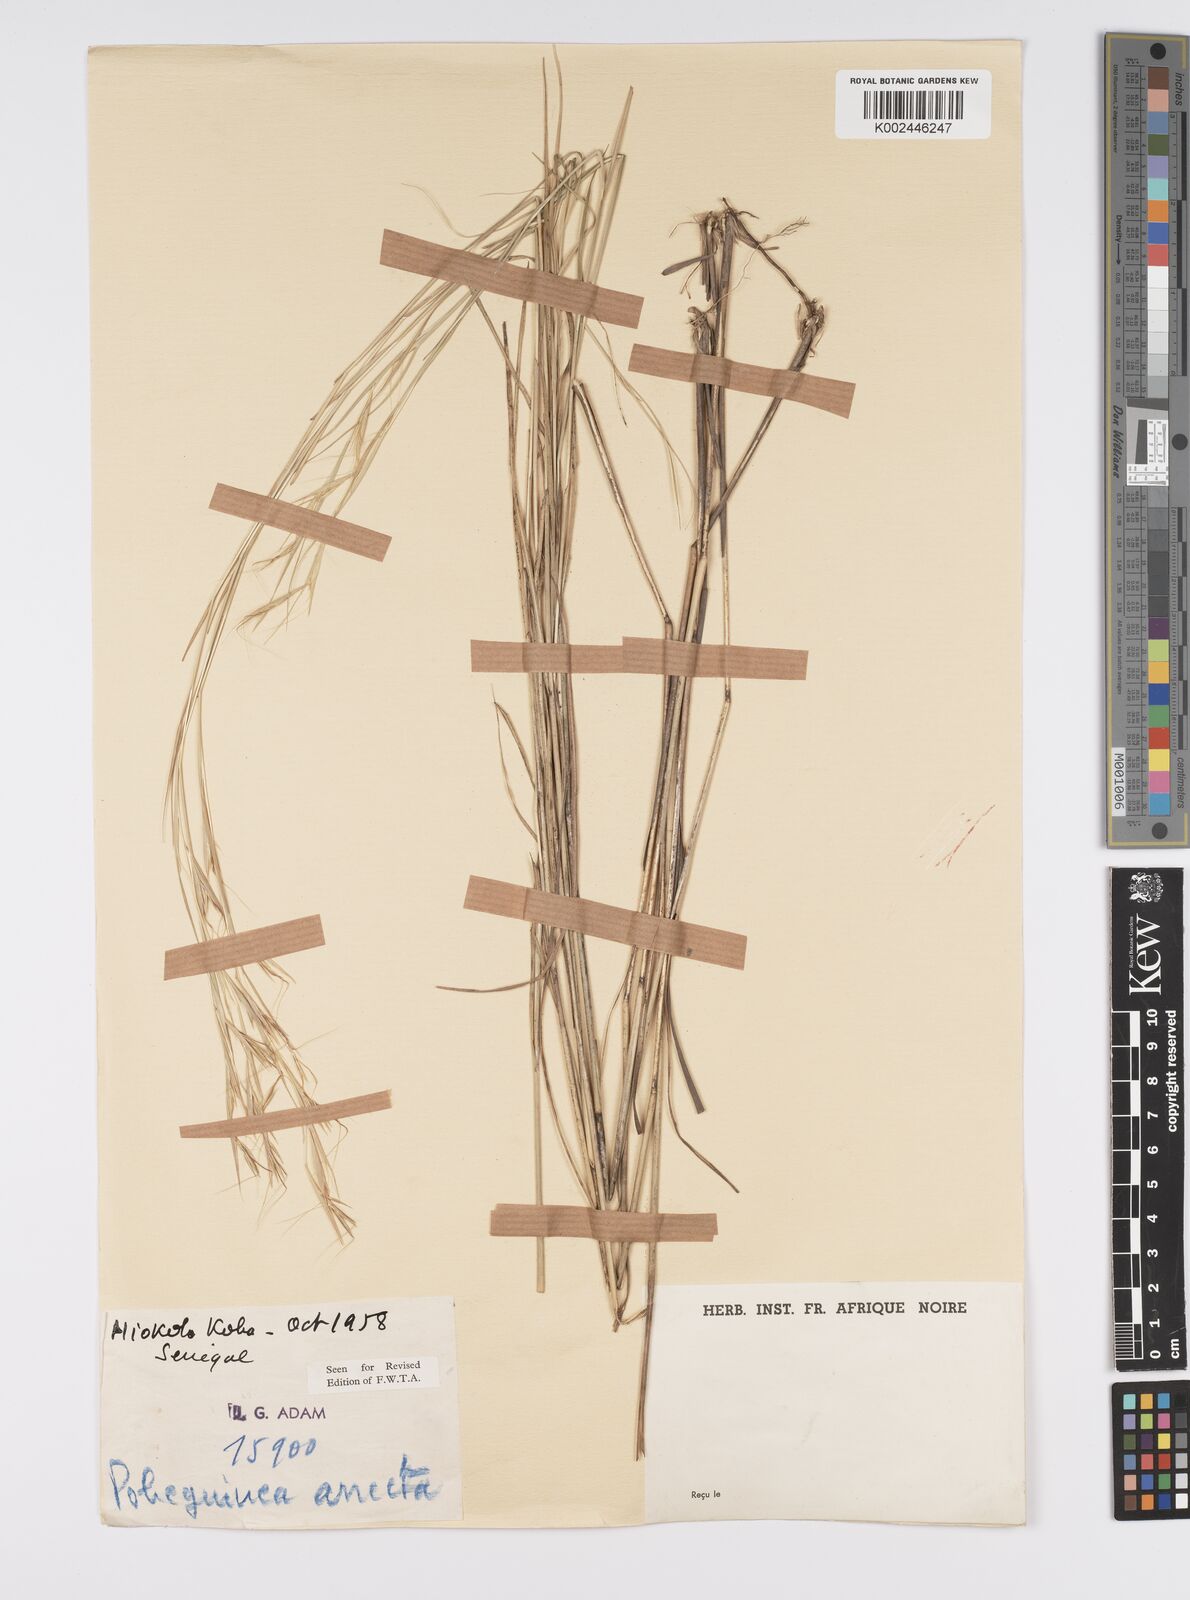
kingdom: Plantae
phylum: Tracheophyta
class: Liliopsida
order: Poales
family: Poaceae
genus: Anadelphia
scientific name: Anadelphia afzeliana
